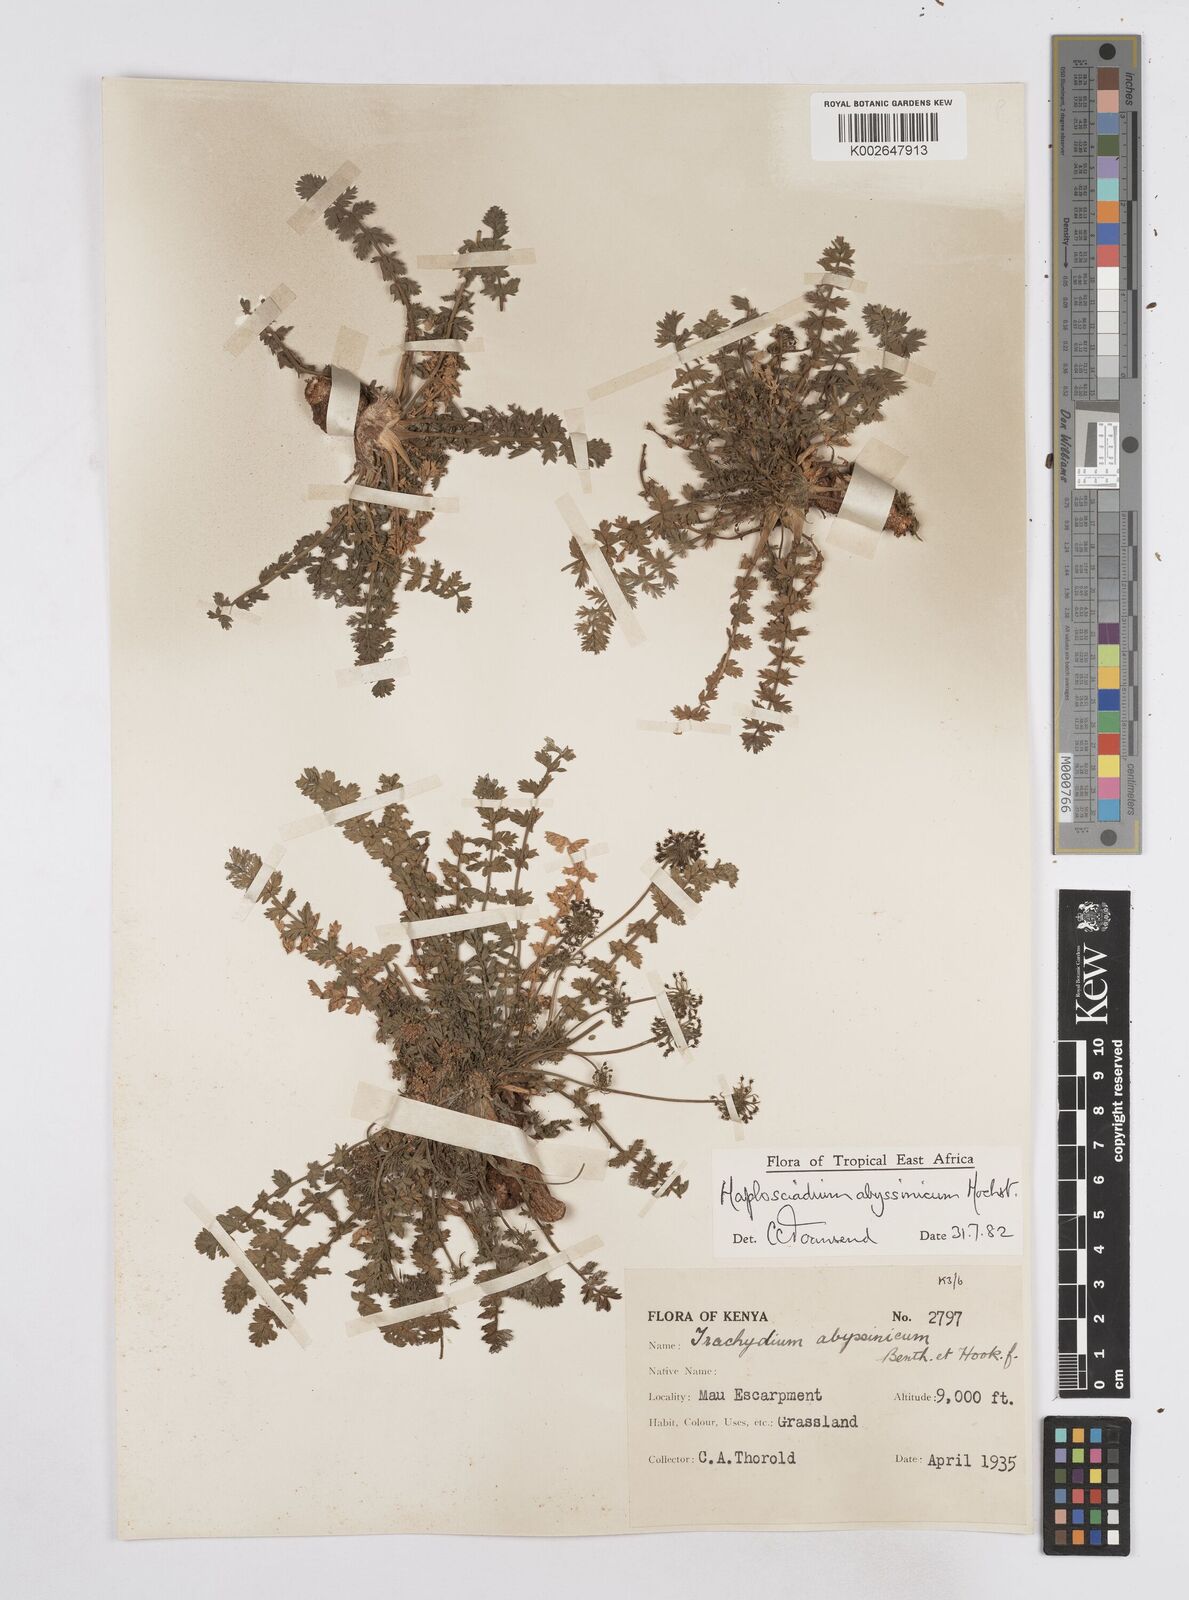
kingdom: Plantae
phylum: Tracheophyta
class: Magnoliopsida
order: Apiales
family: Apiaceae
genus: Haplosciadium
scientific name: Haplosciadium abyssinicum
